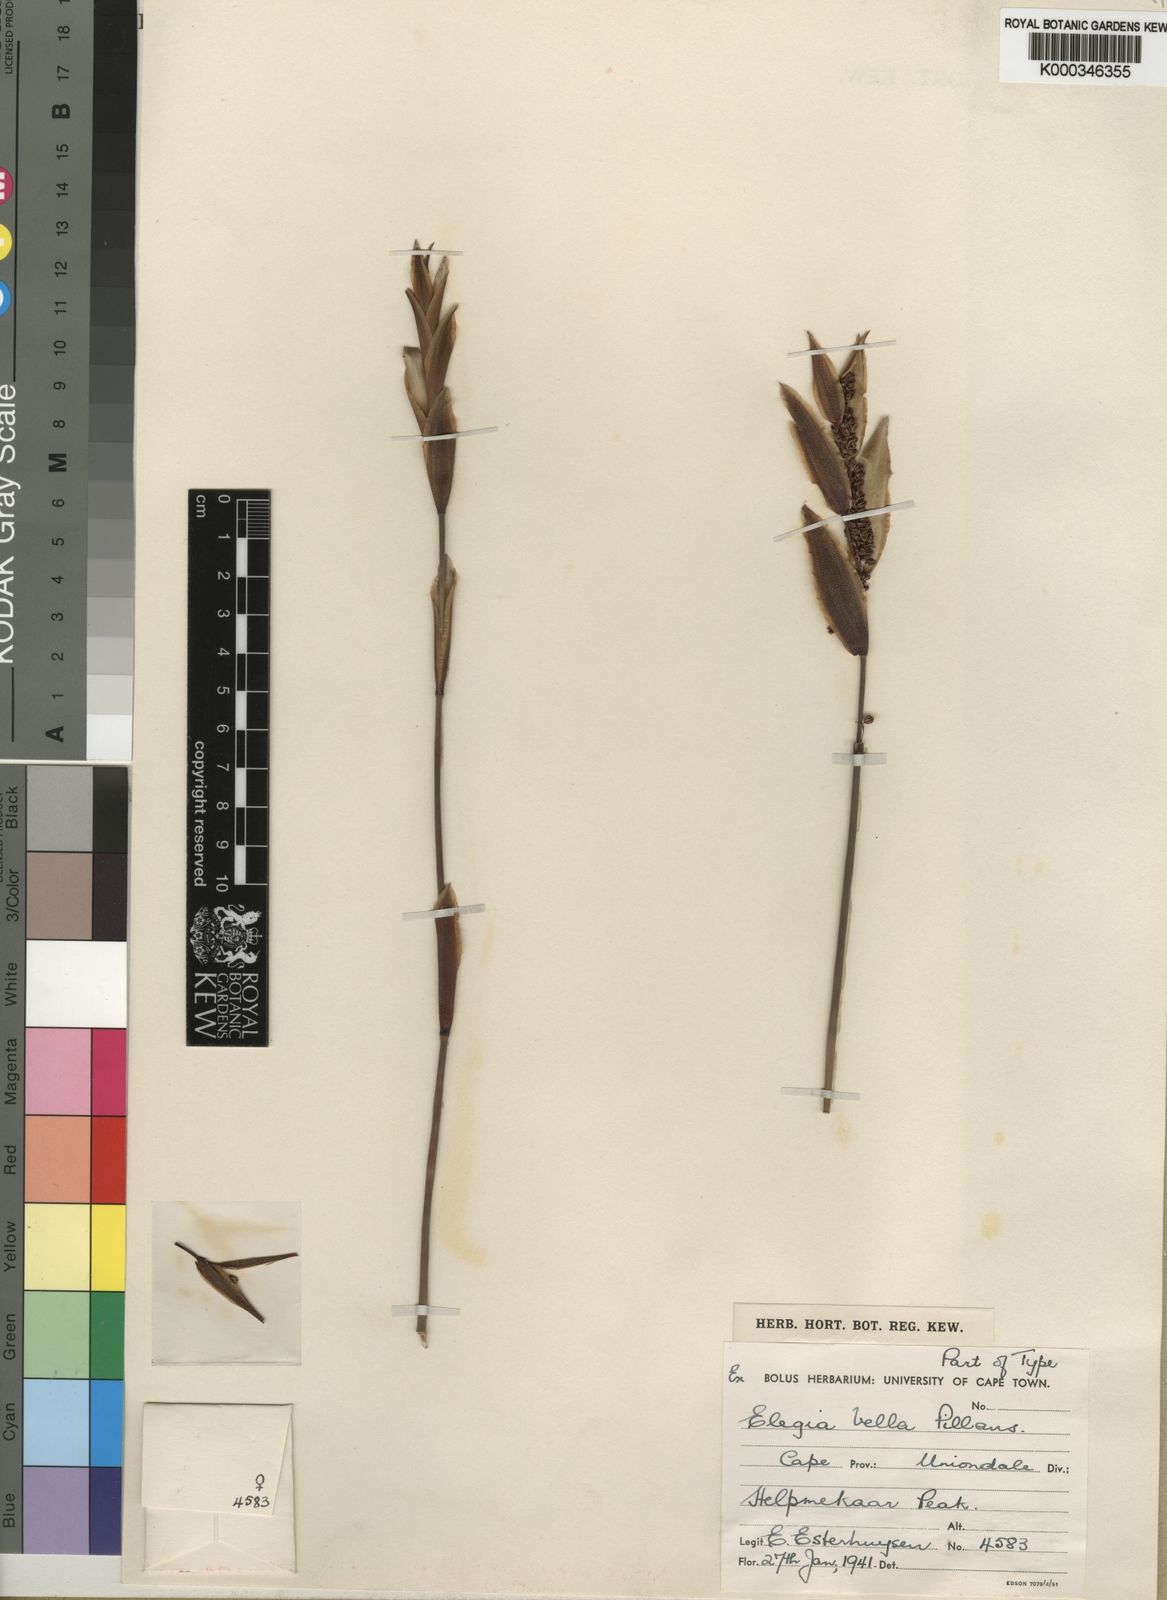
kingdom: Plantae
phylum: Tracheophyta
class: Liliopsida
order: Poales
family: Restionaceae
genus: Elegia
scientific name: Elegia racemosa
